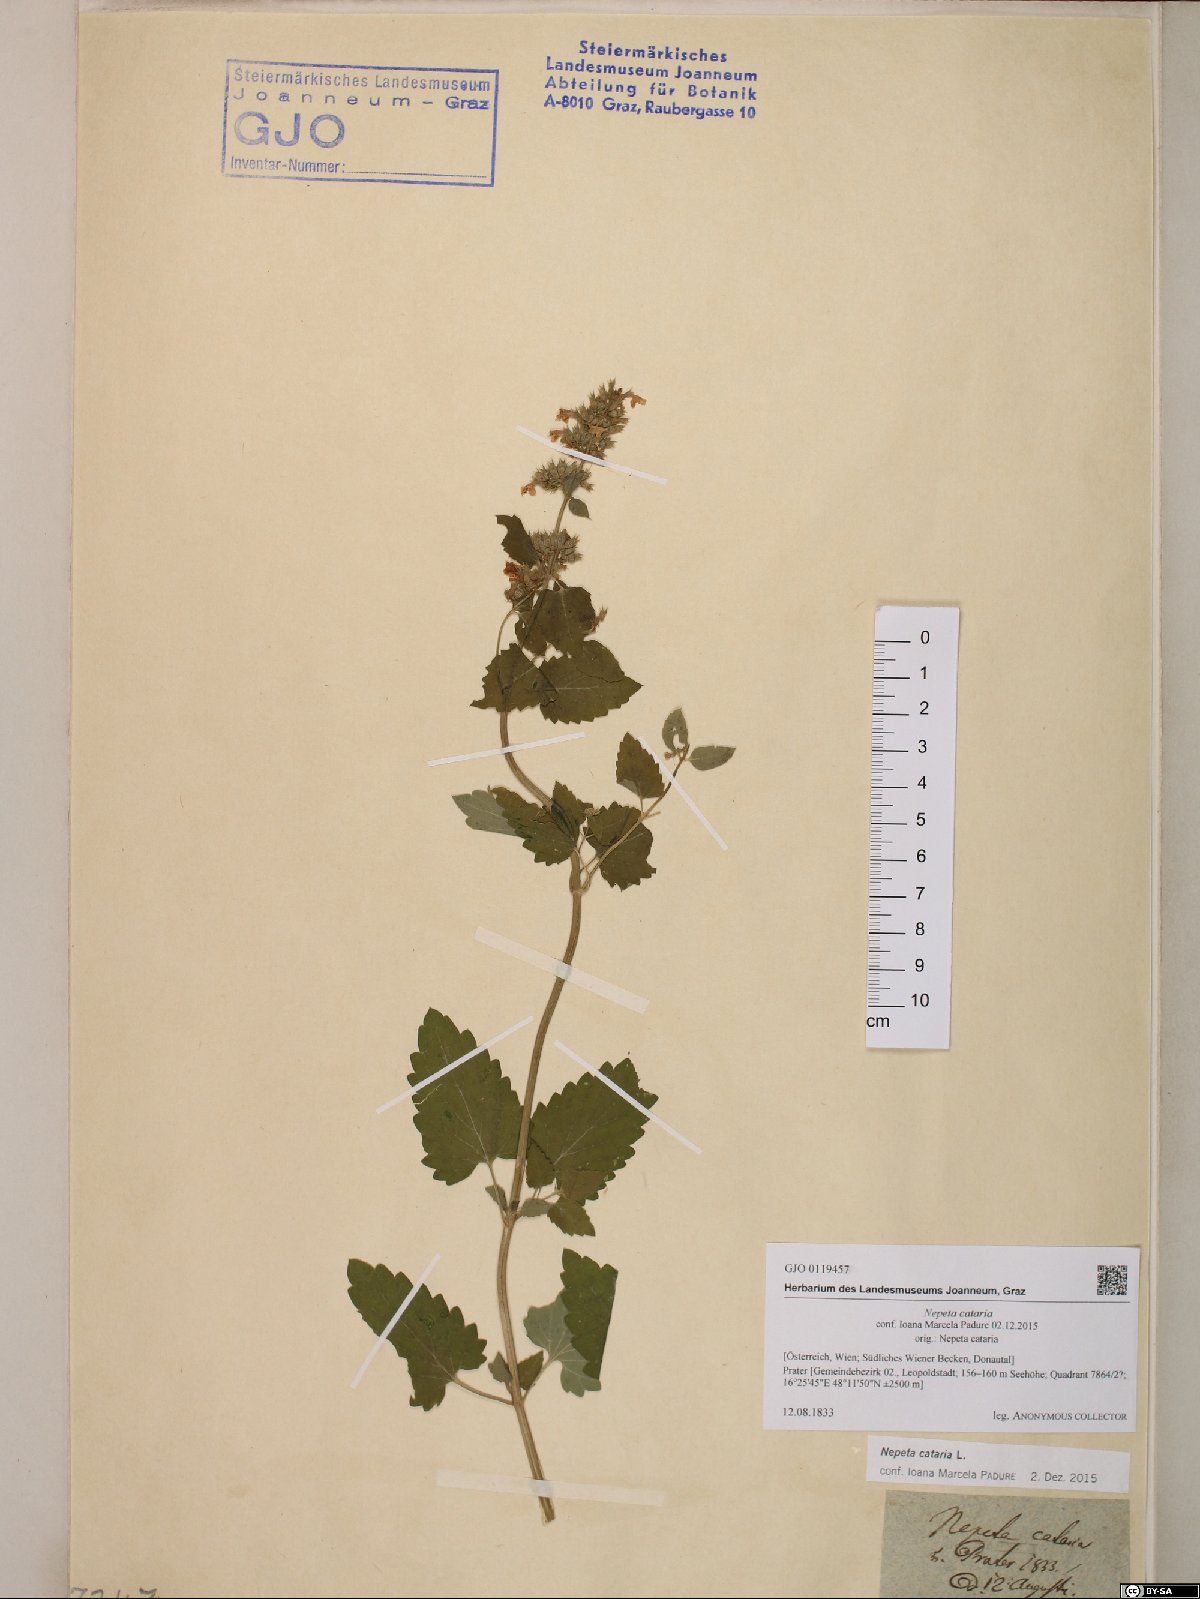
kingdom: Plantae
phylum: Tracheophyta
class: Magnoliopsida
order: Lamiales
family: Lamiaceae
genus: Nepeta
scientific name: Nepeta cataria
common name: Catnip
